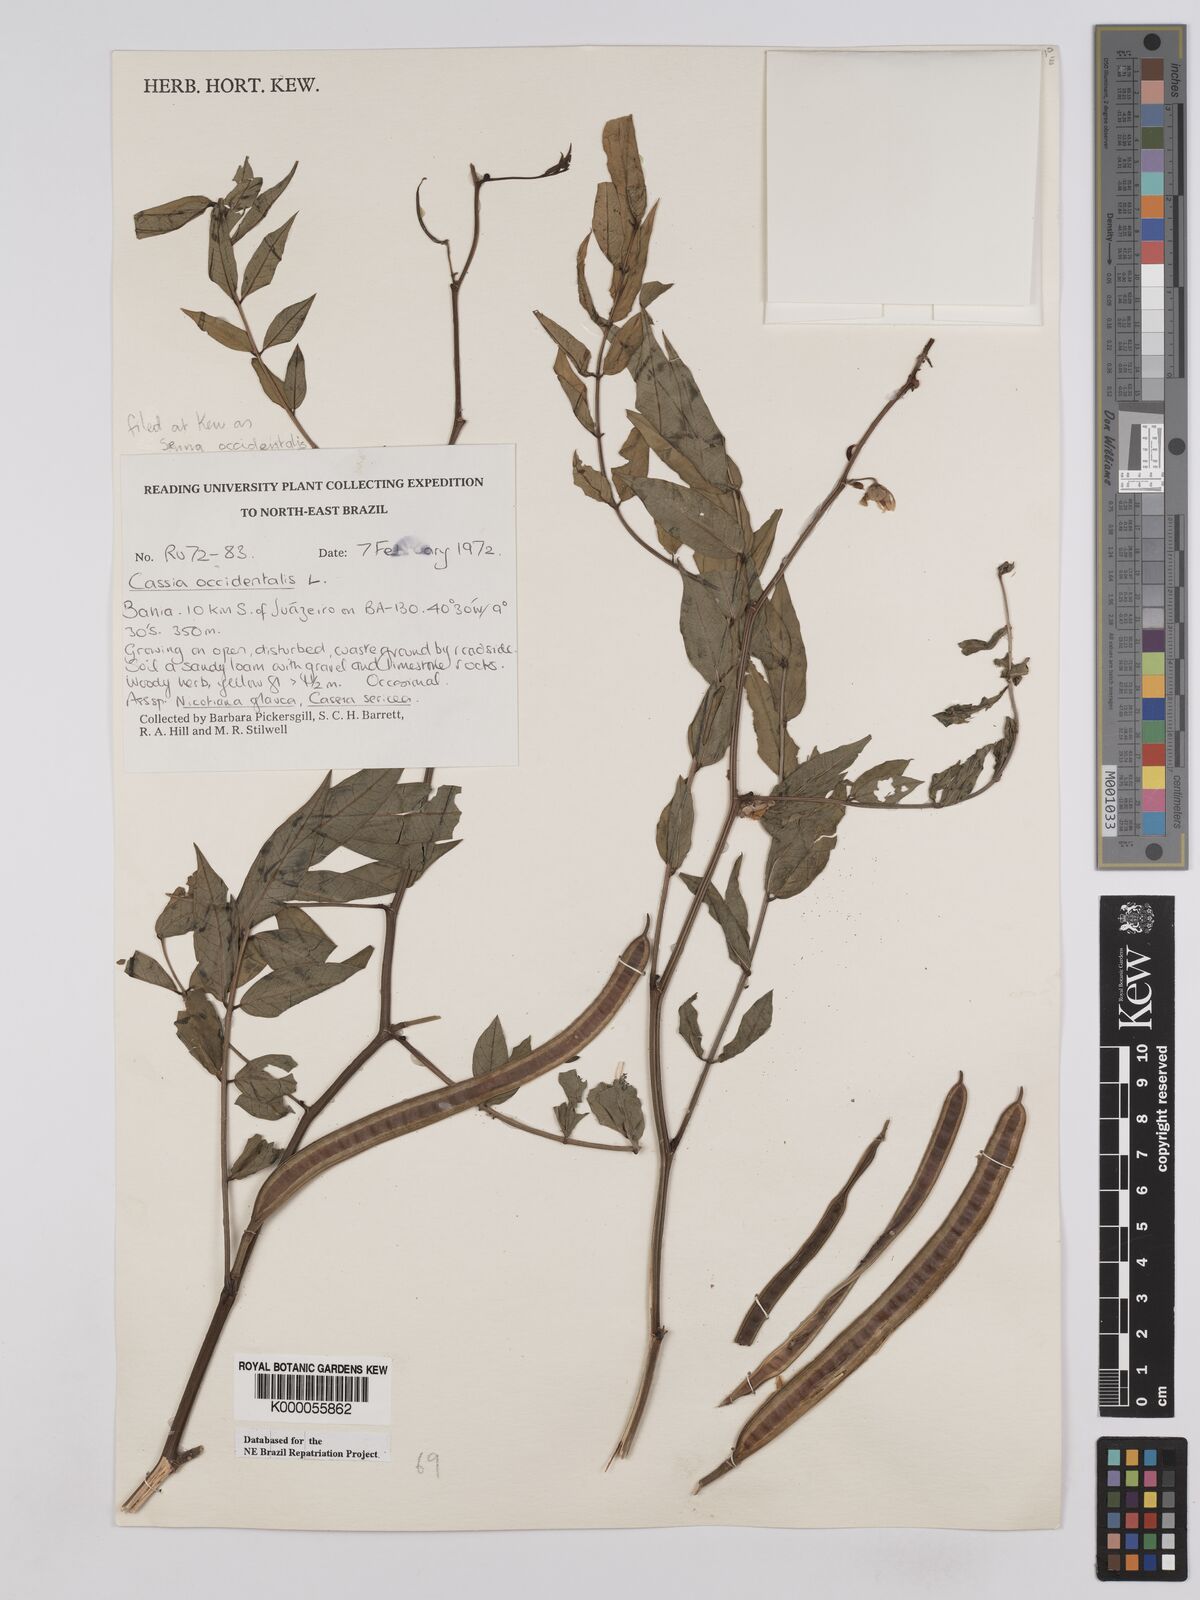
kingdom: Plantae
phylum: Tracheophyta
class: Magnoliopsida
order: Fabales
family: Fabaceae
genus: Senna
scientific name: Senna occidentalis
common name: Septicweed
